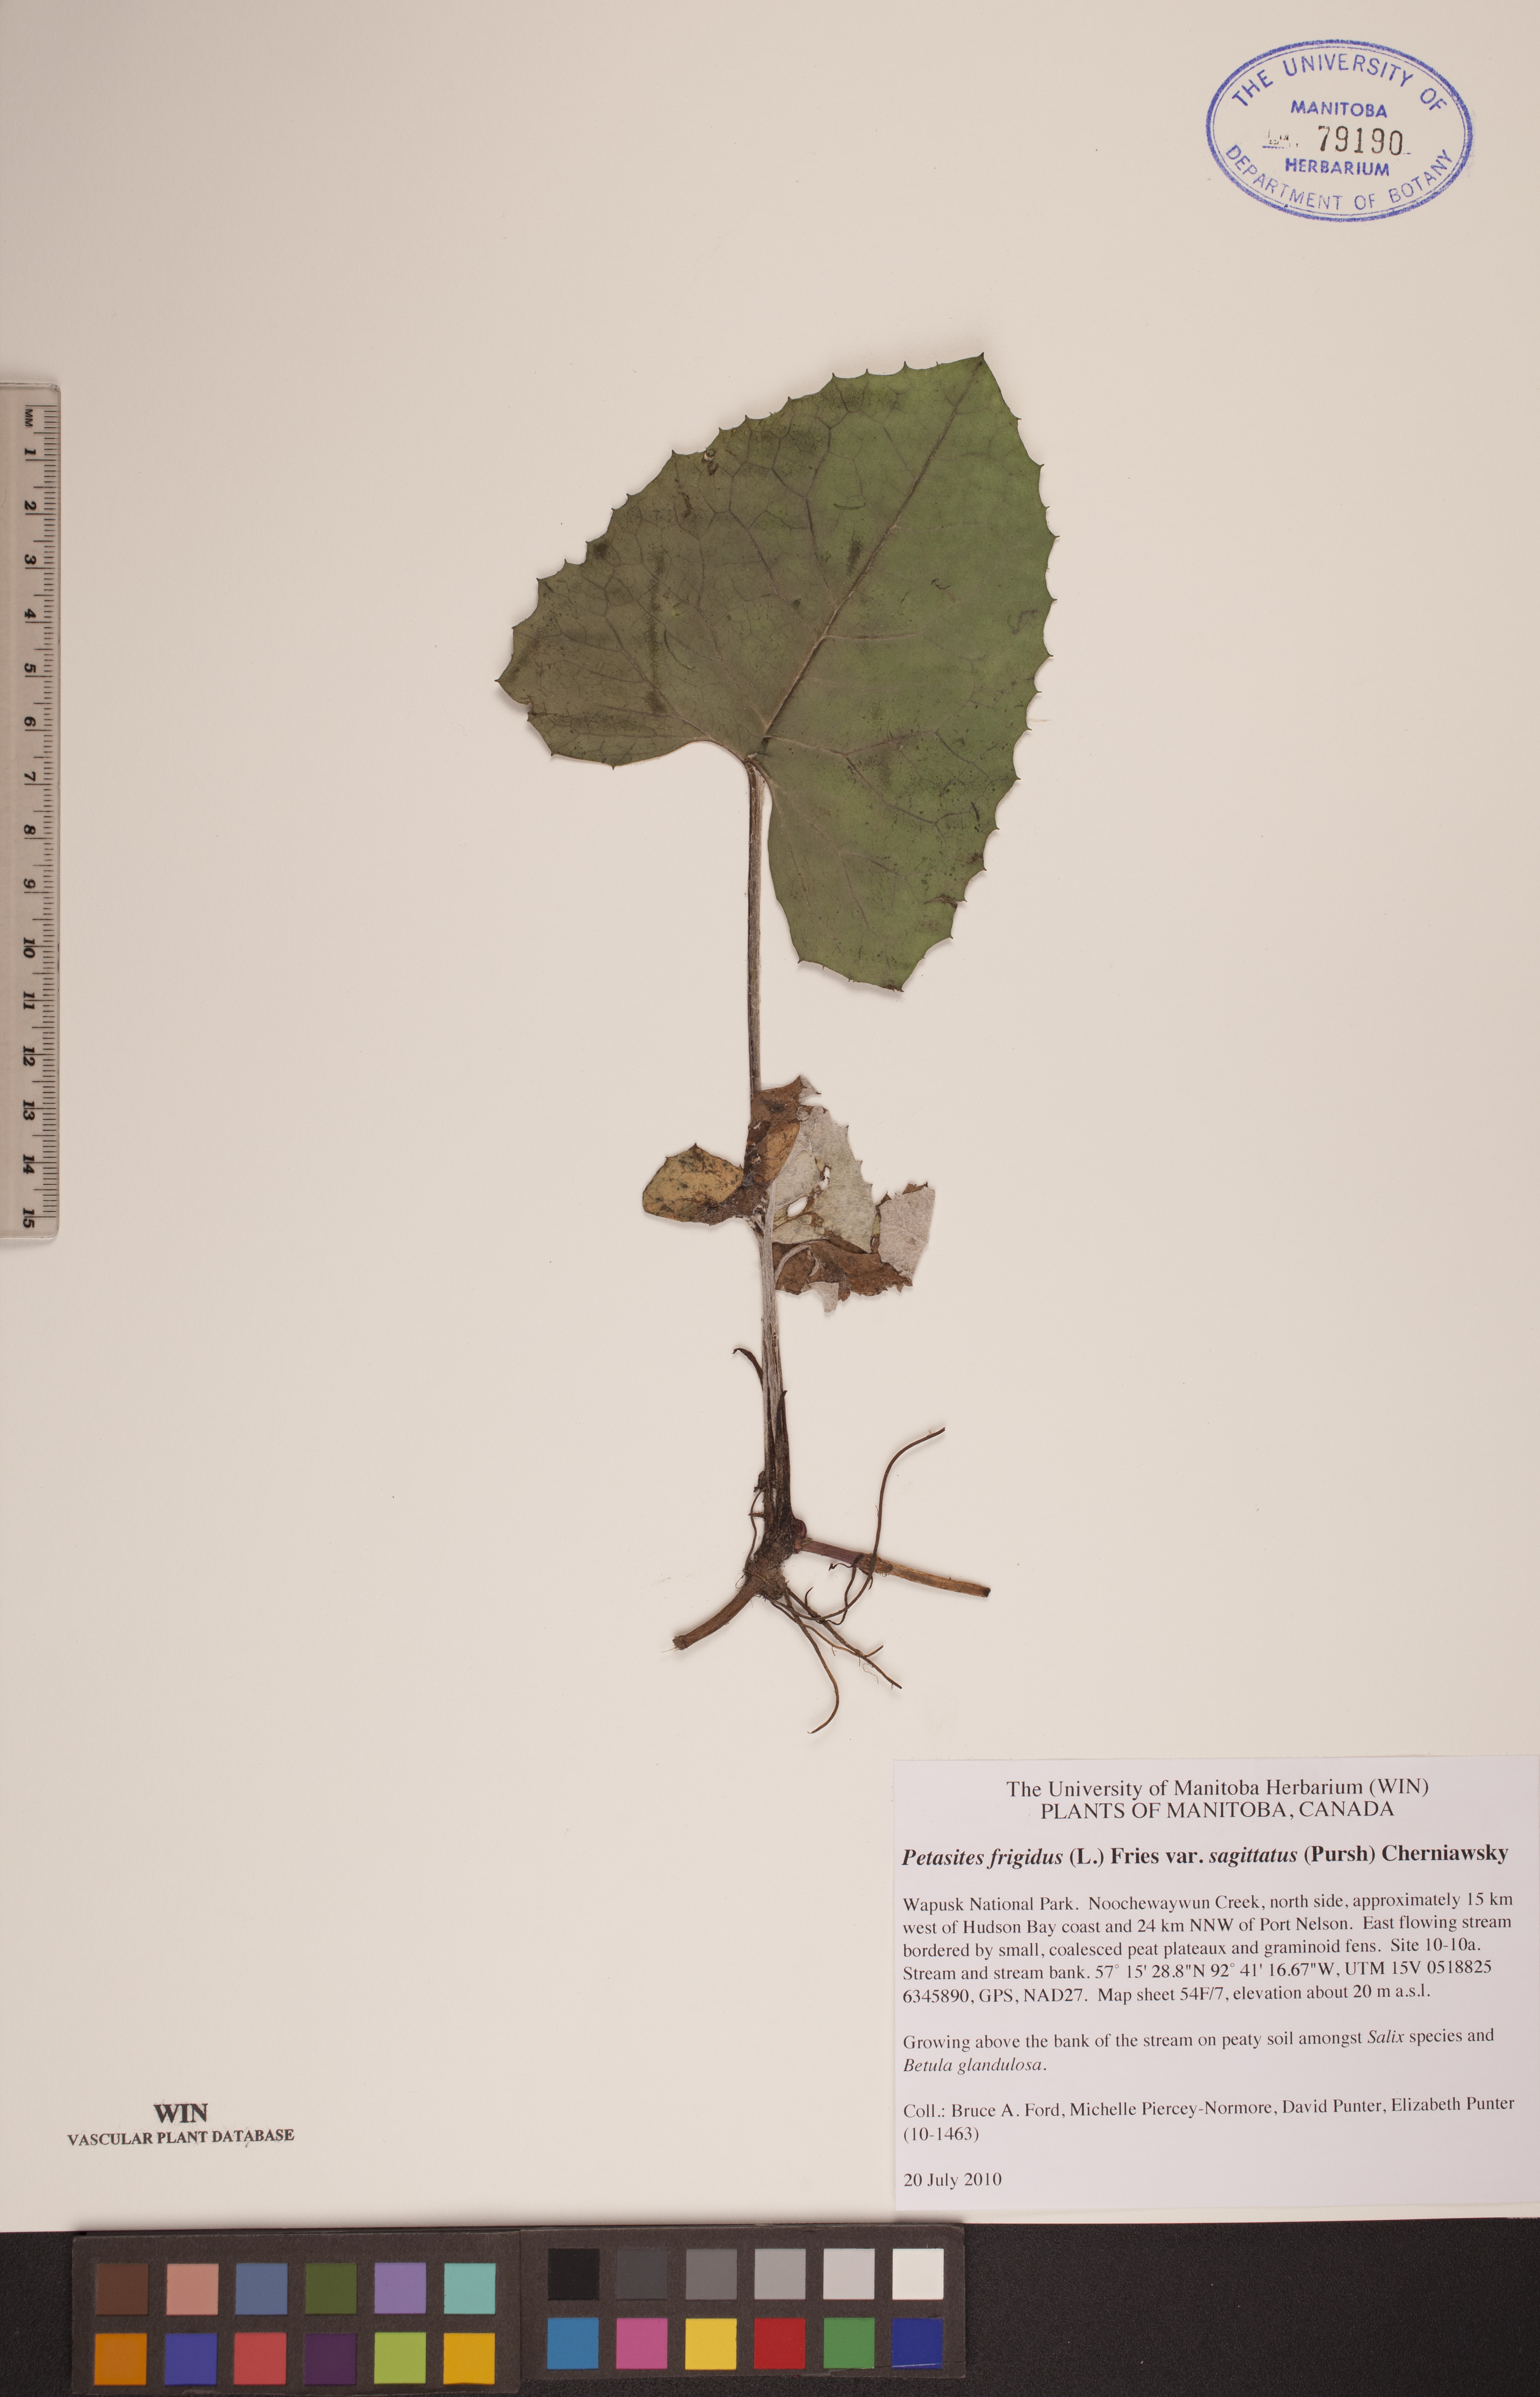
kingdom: Plantae
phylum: Tracheophyta
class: Magnoliopsida
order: Asterales
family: Asteraceae
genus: Petasites
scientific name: Petasites frigidus
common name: Arctic butterbur
